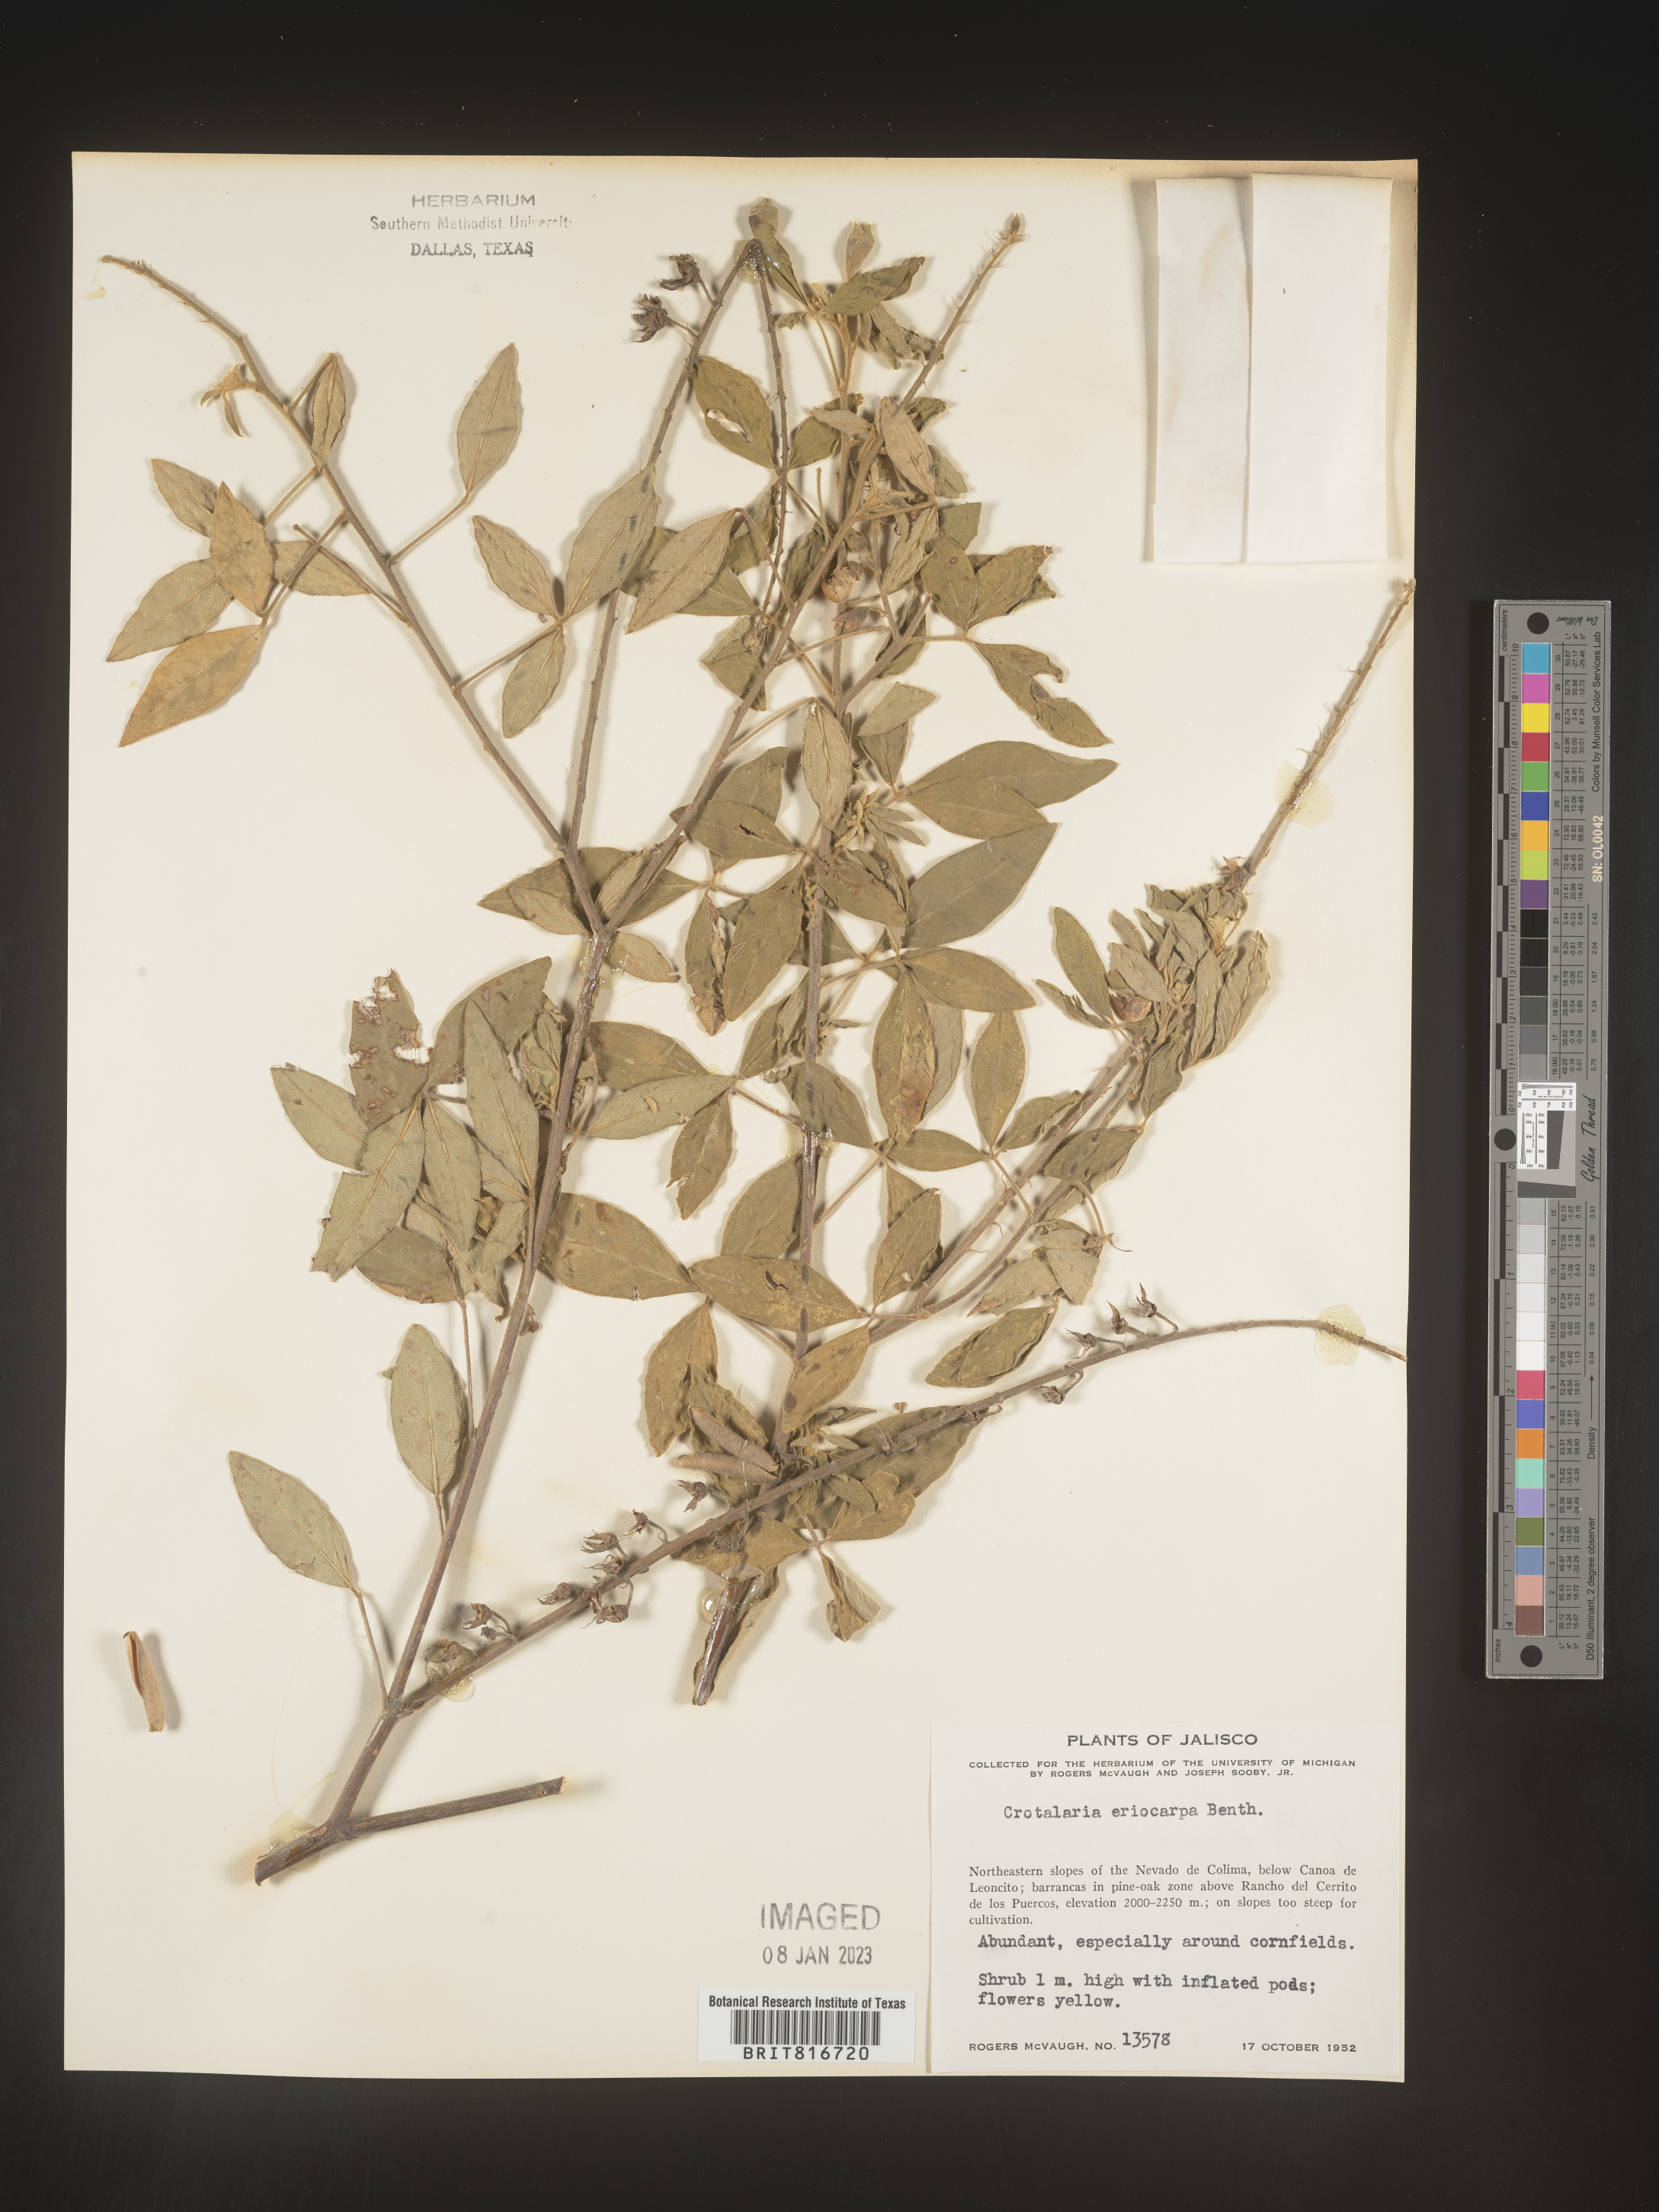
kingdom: Plantae
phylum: Tracheophyta
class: Magnoliopsida
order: Fabales
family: Fabaceae
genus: Crotalaria
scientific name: Crotalaria
